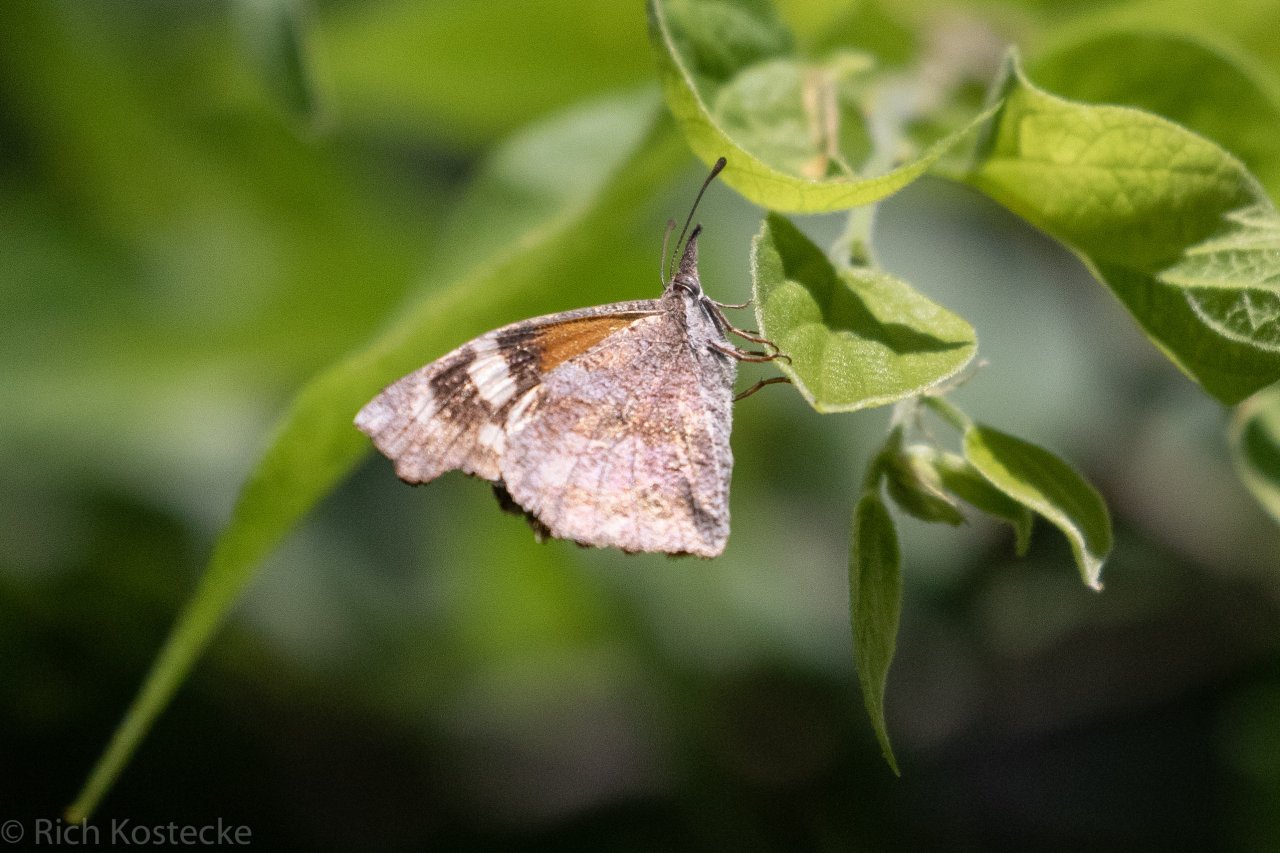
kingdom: Animalia
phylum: Arthropoda
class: Insecta
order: Lepidoptera
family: Nymphalidae
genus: Libytheana
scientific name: Libytheana carinenta
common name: American Snout
